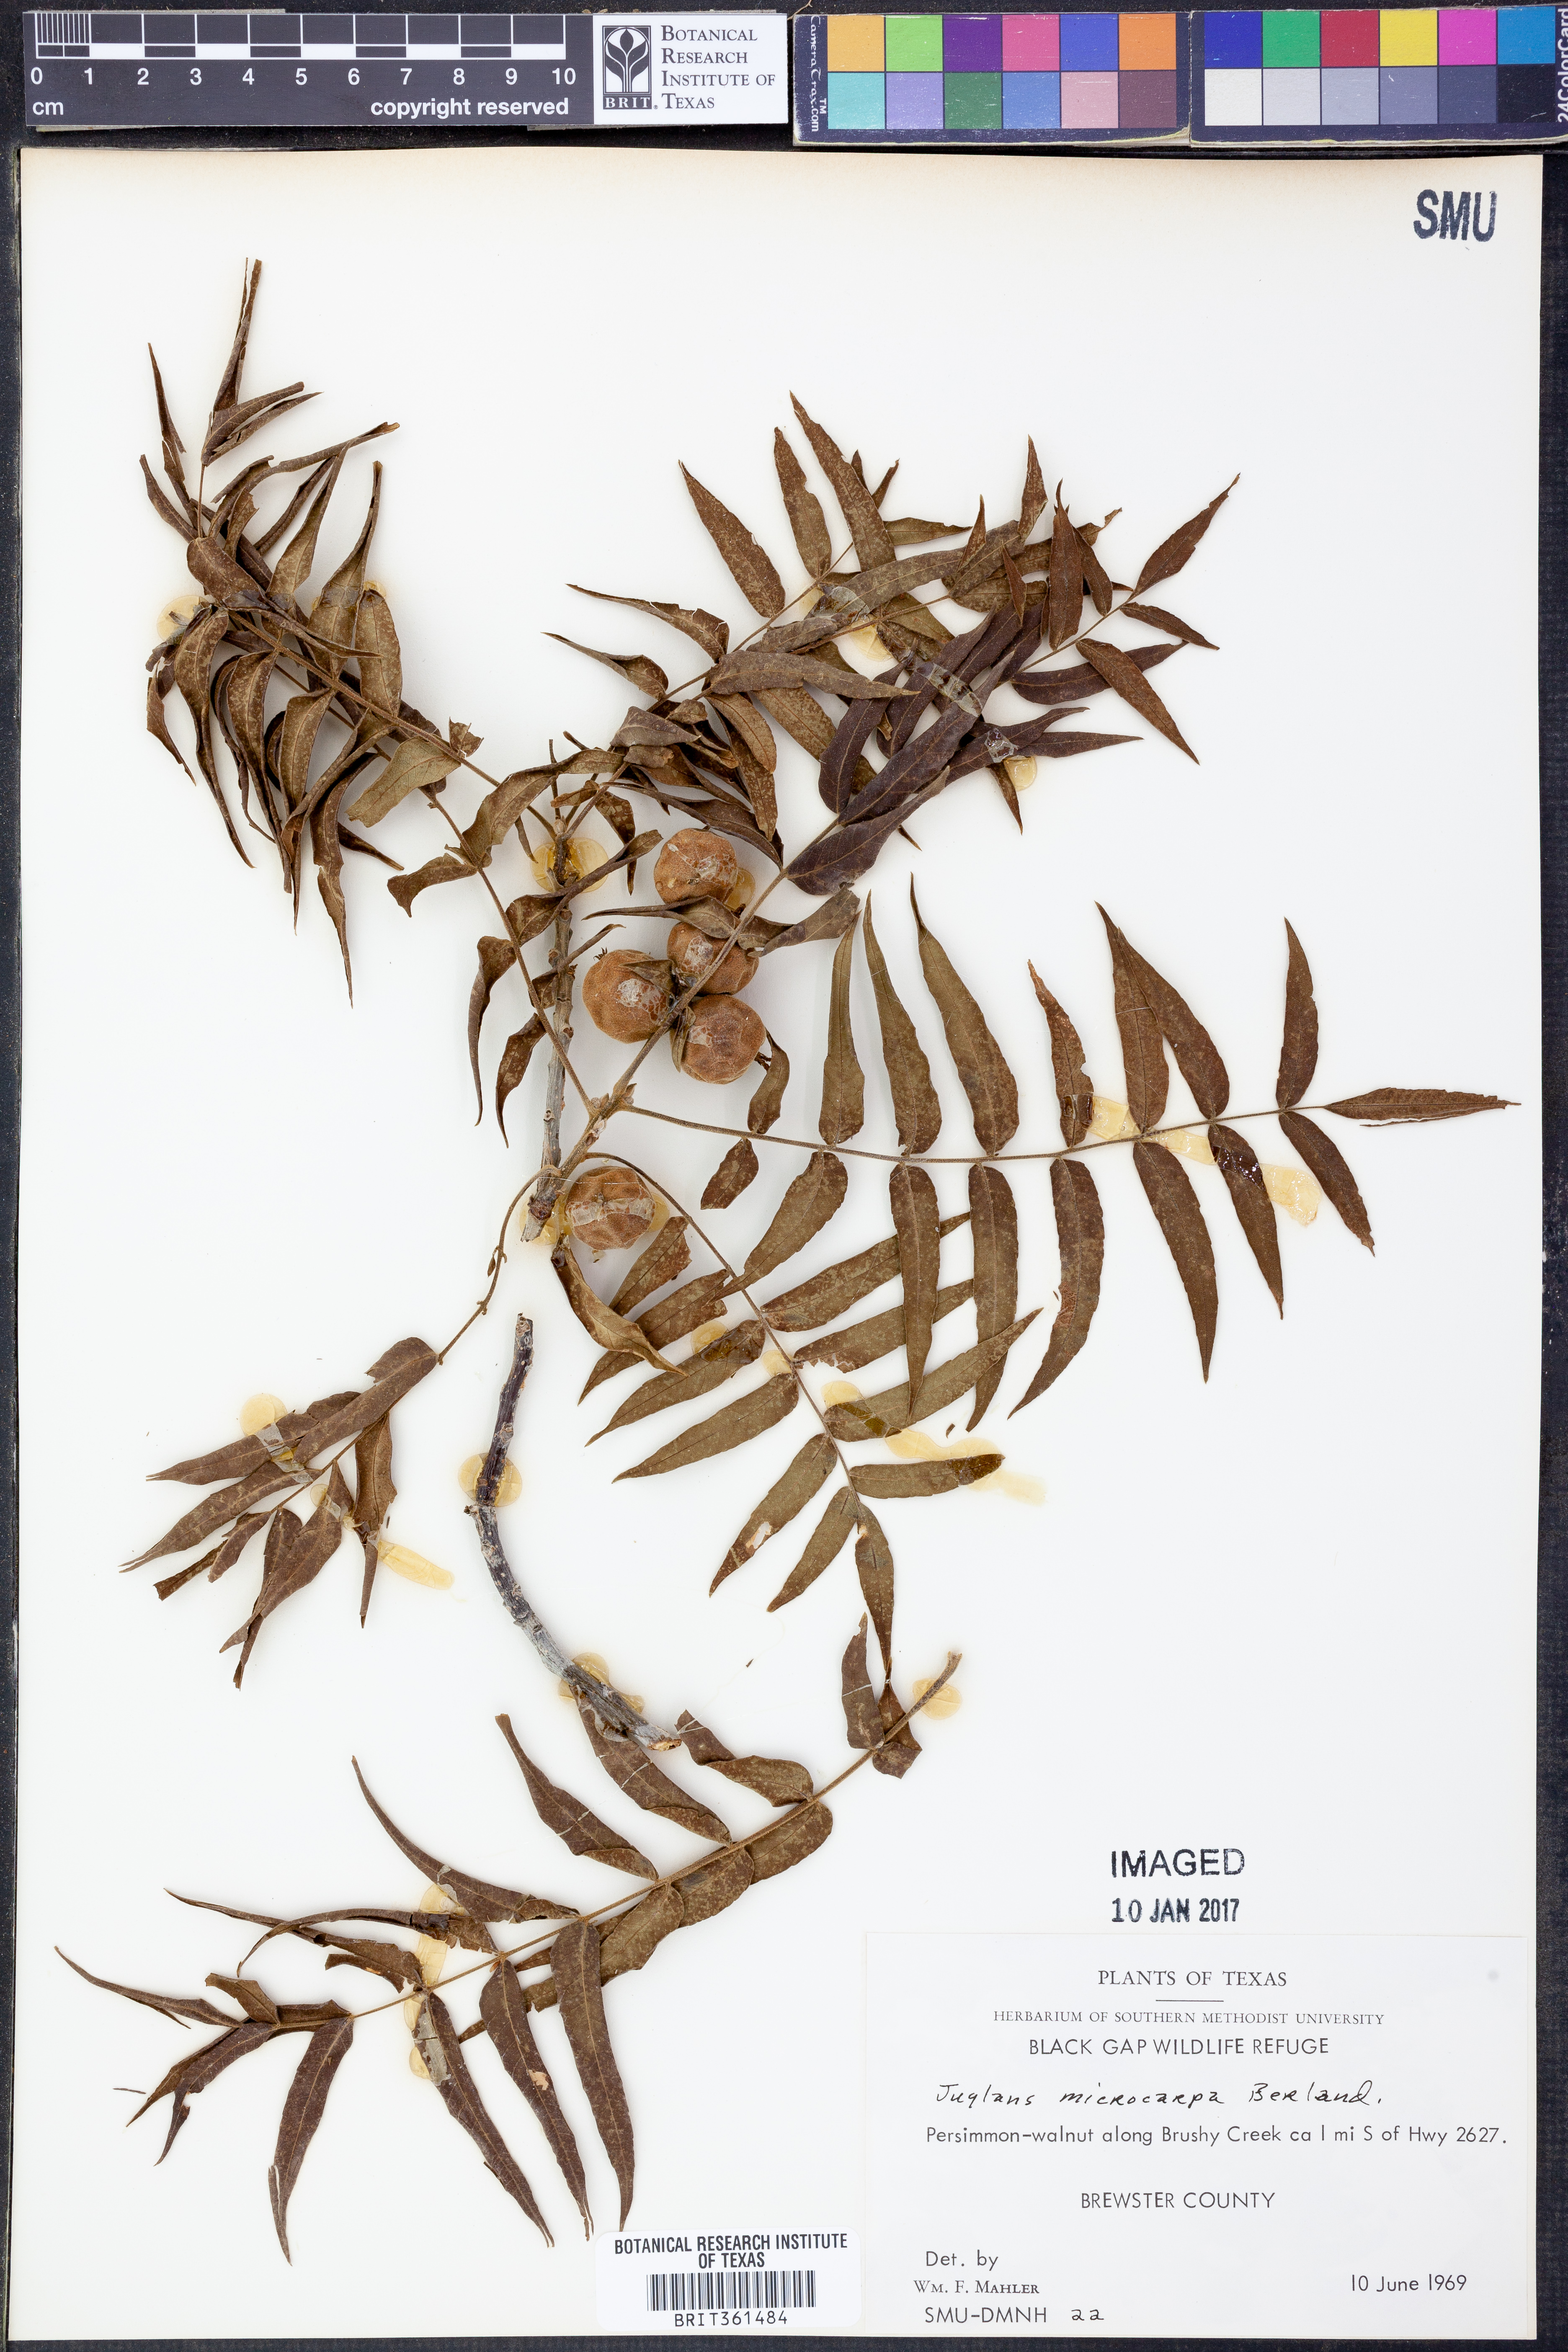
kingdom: Plantae
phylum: Tracheophyta
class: Magnoliopsida
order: Fagales
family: Juglandaceae
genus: Juglans
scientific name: Juglans microcarpa
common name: Texas walnut
